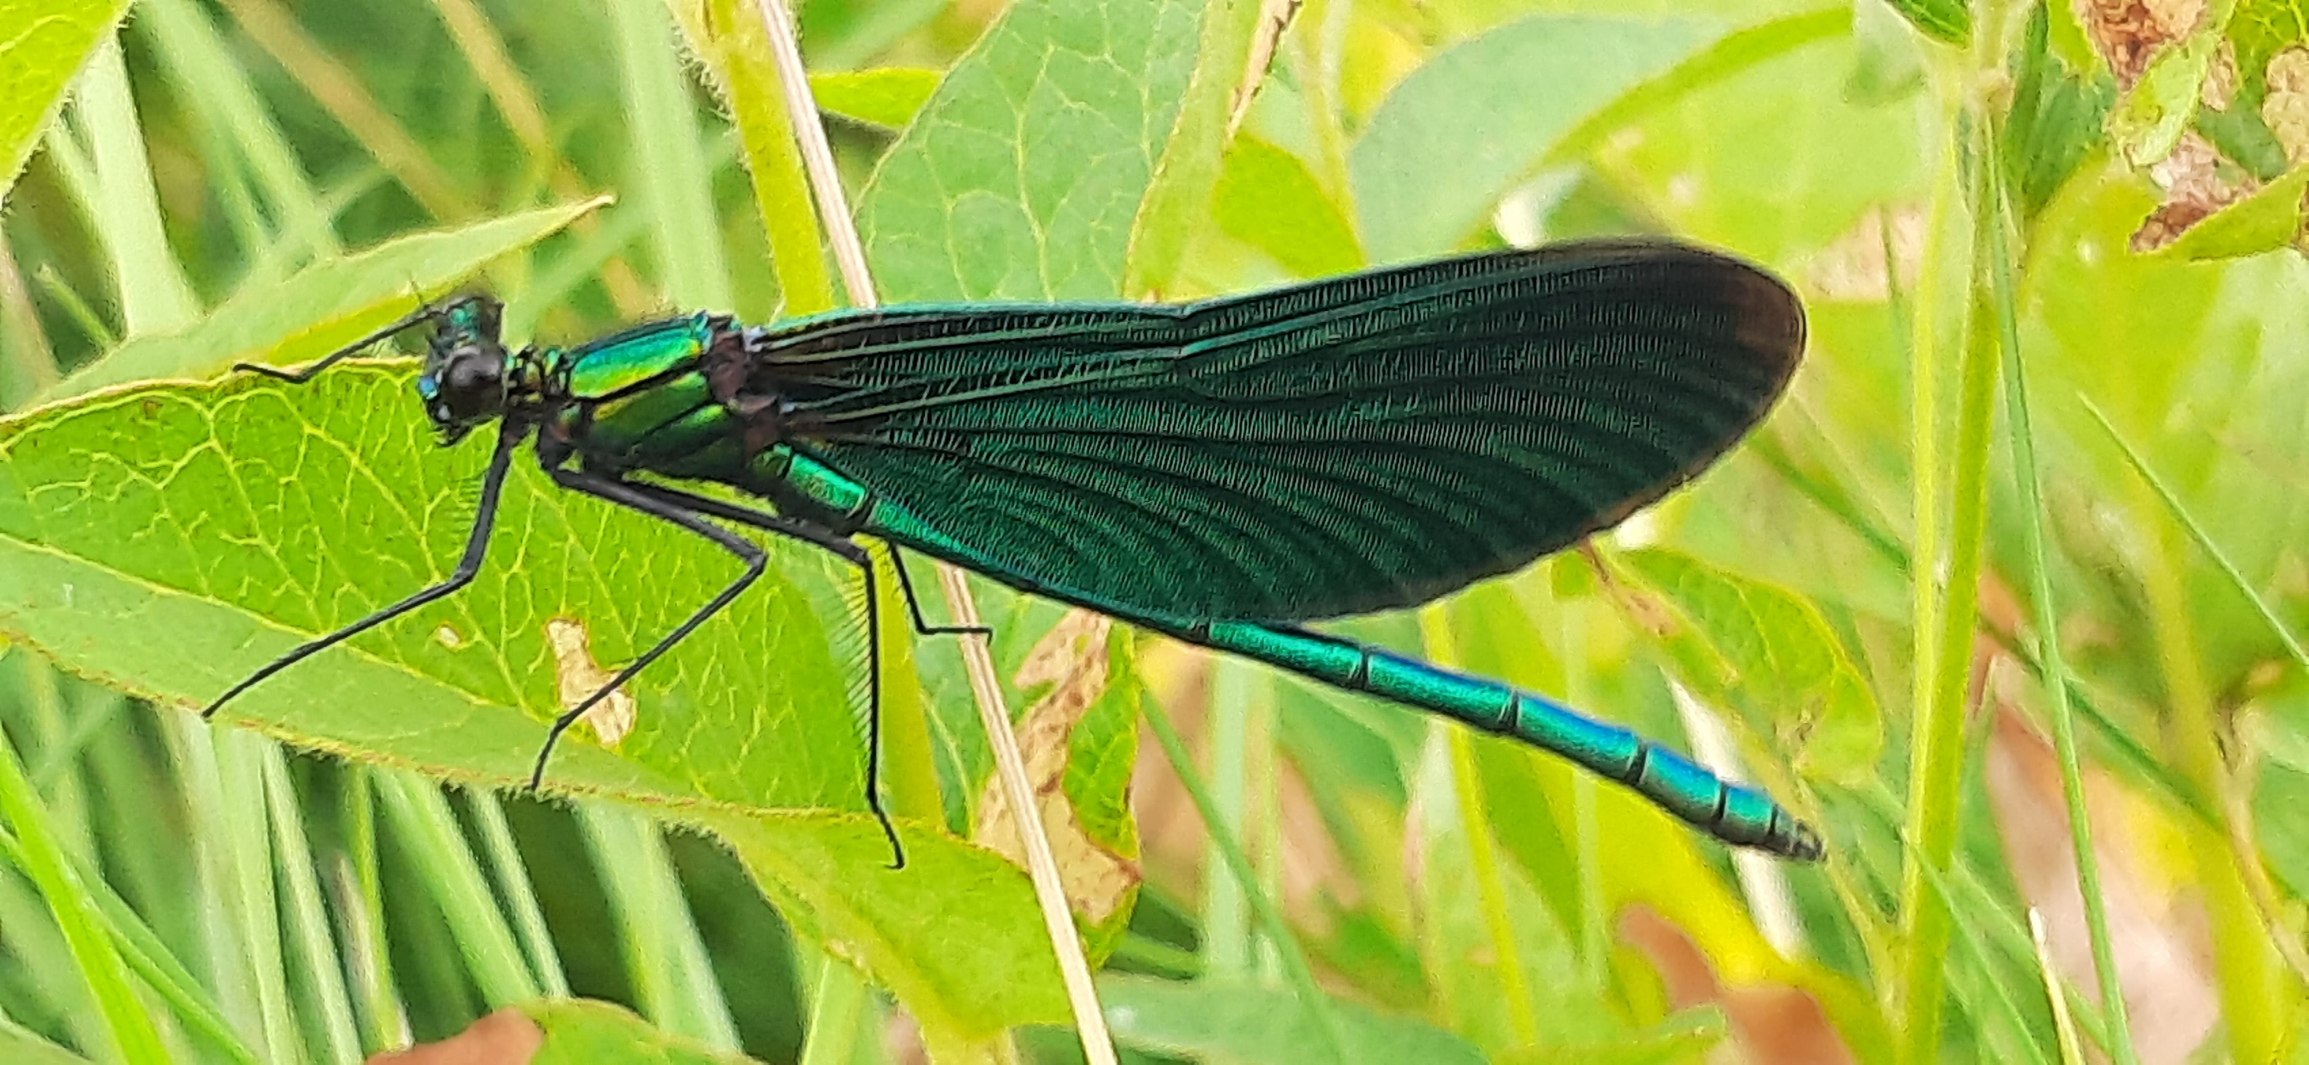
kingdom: Animalia
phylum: Arthropoda
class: Insecta
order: Odonata
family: Calopterygidae
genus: Calopteryx
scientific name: Calopteryx virgo
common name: Blåvinget pragtvandnymfe
